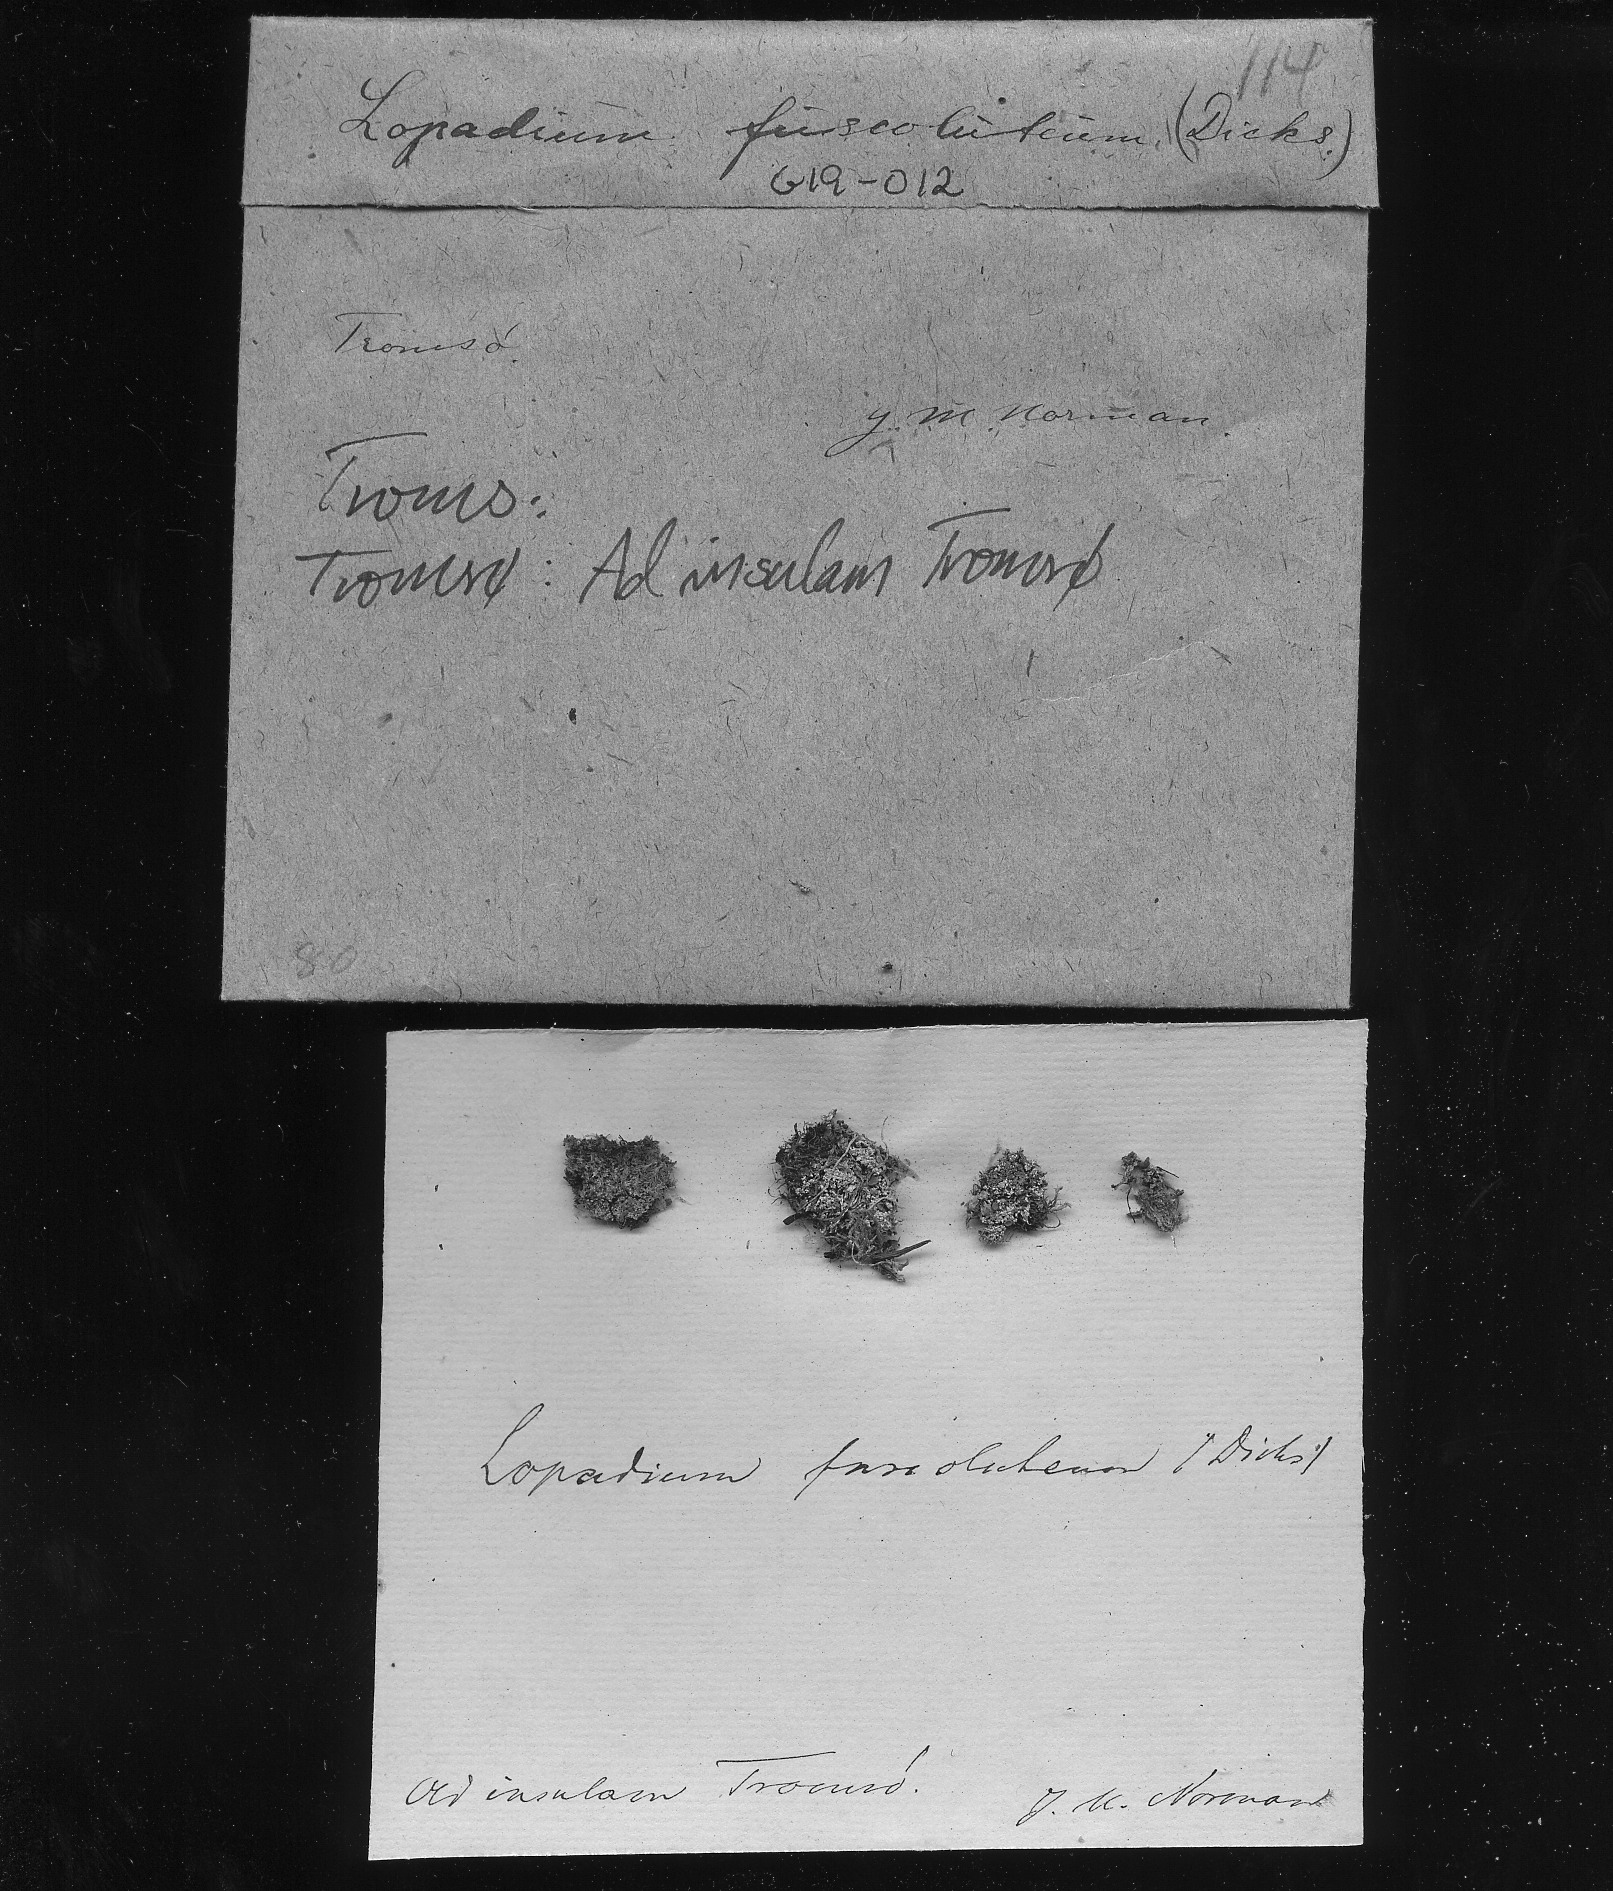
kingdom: Fungi
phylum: Ascomycota
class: Lecanoromycetes
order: Teloschistales
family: Brigantiaeaceae
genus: Brigantiaea
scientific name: Brigantiaea fuscolutea
